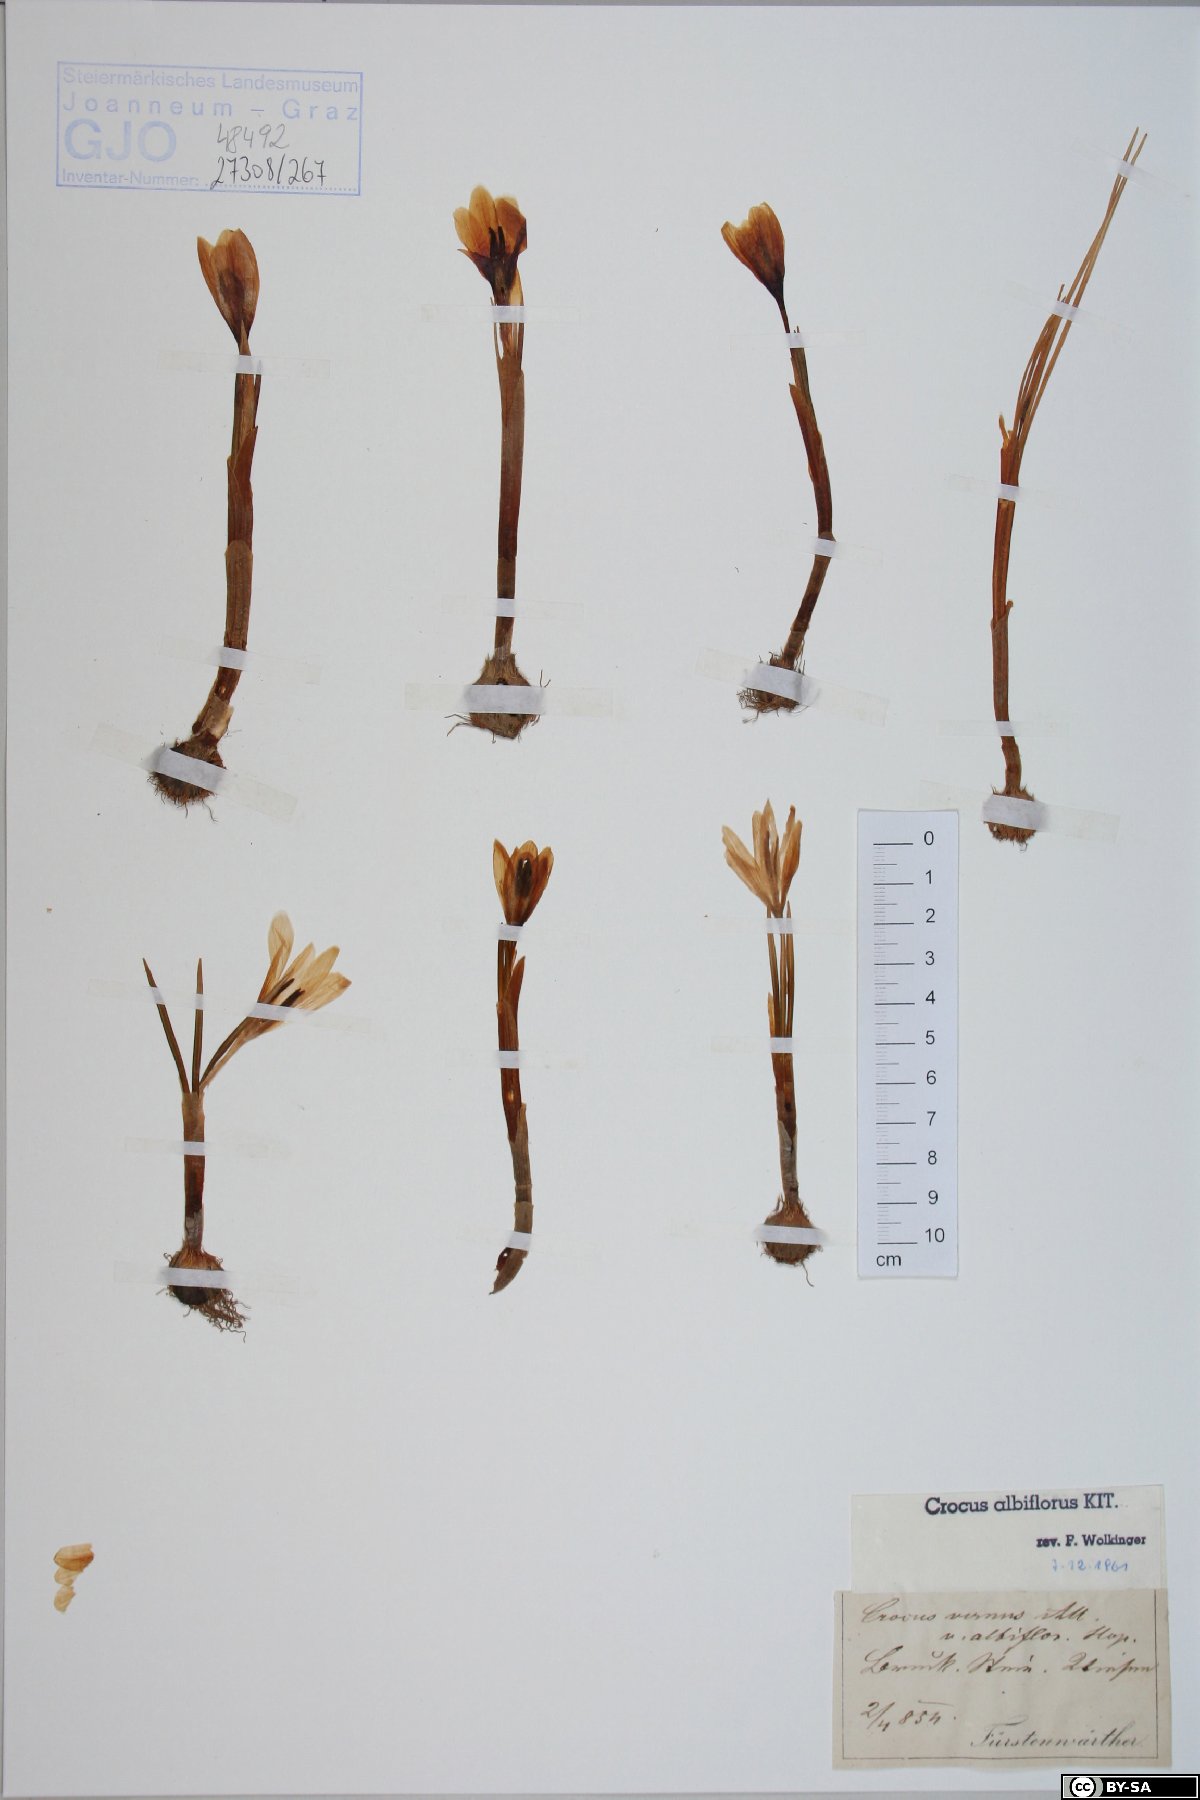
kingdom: Plantae
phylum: Tracheophyta
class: Liliopsida
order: Asparagales
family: Iridaceae
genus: Crocus
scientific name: Crocus vernus
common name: Spring crocus
